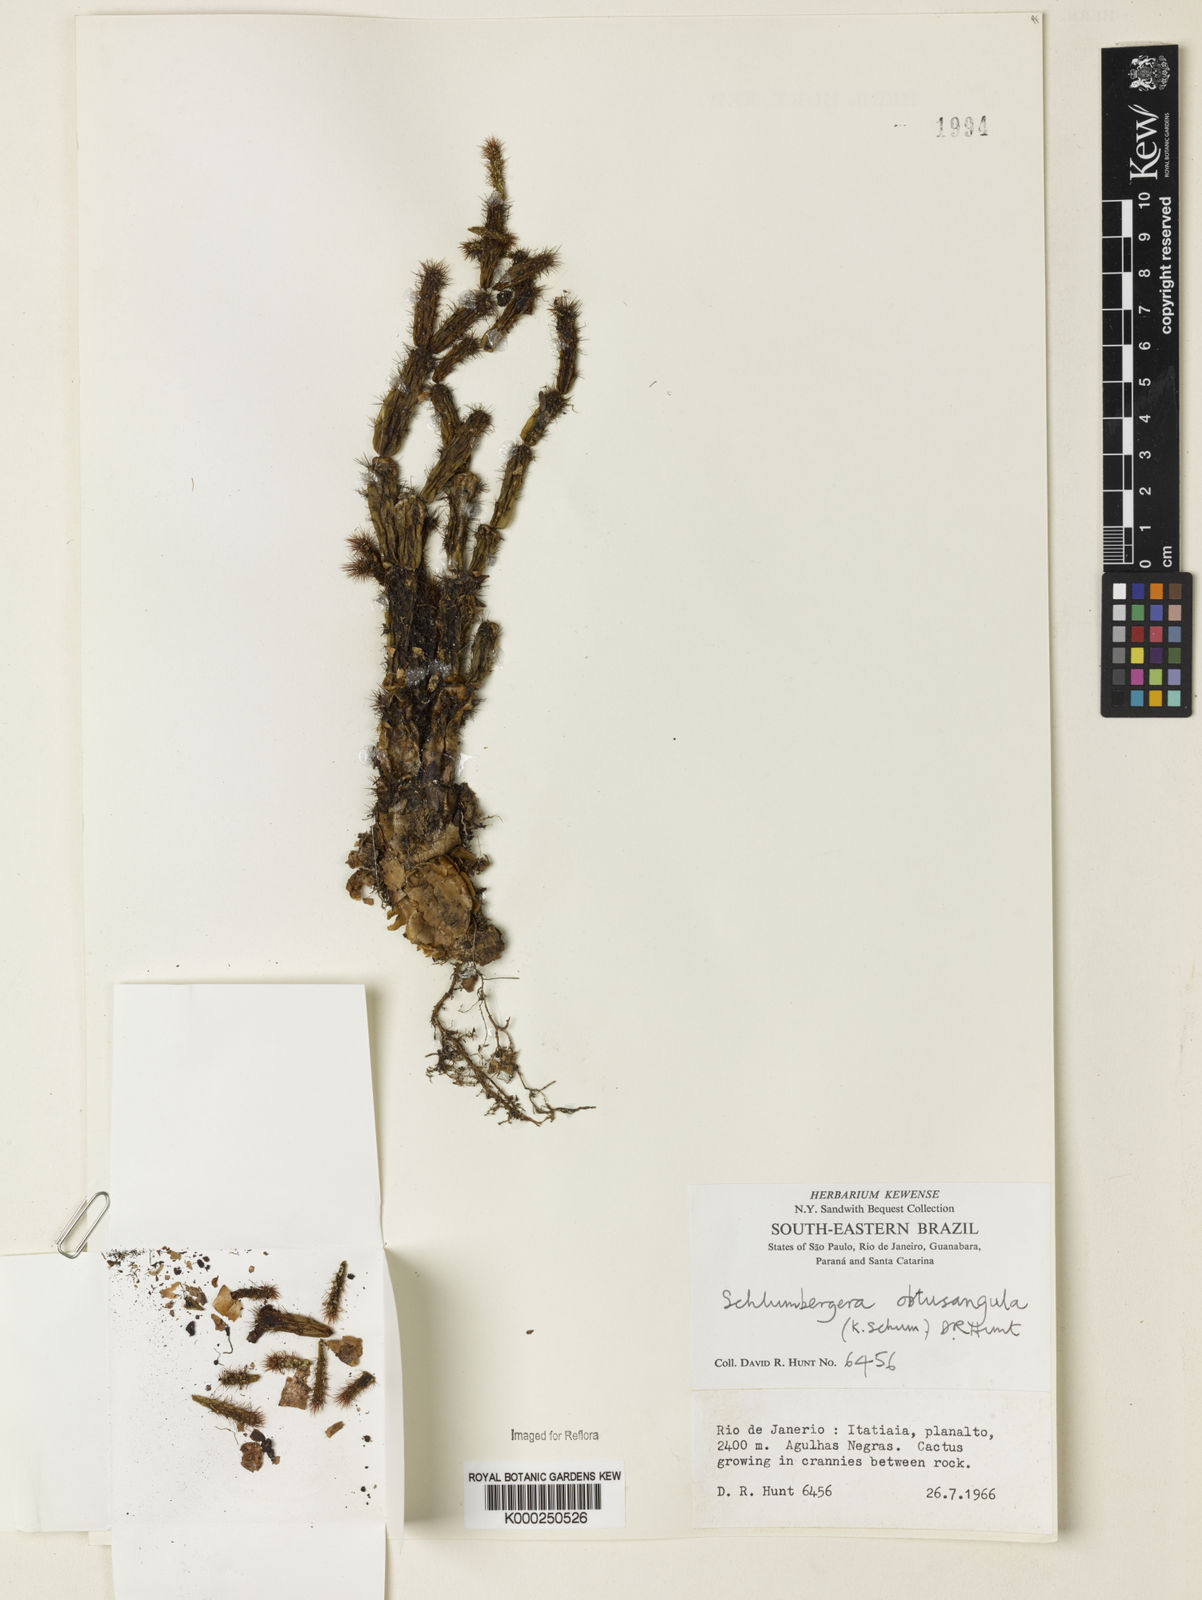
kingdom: Plantae
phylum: Tracheophyta
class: Magnoliopsida
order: Caryophyllales
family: Cactaceae
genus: Schlumbergera
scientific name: Schlumbergera
